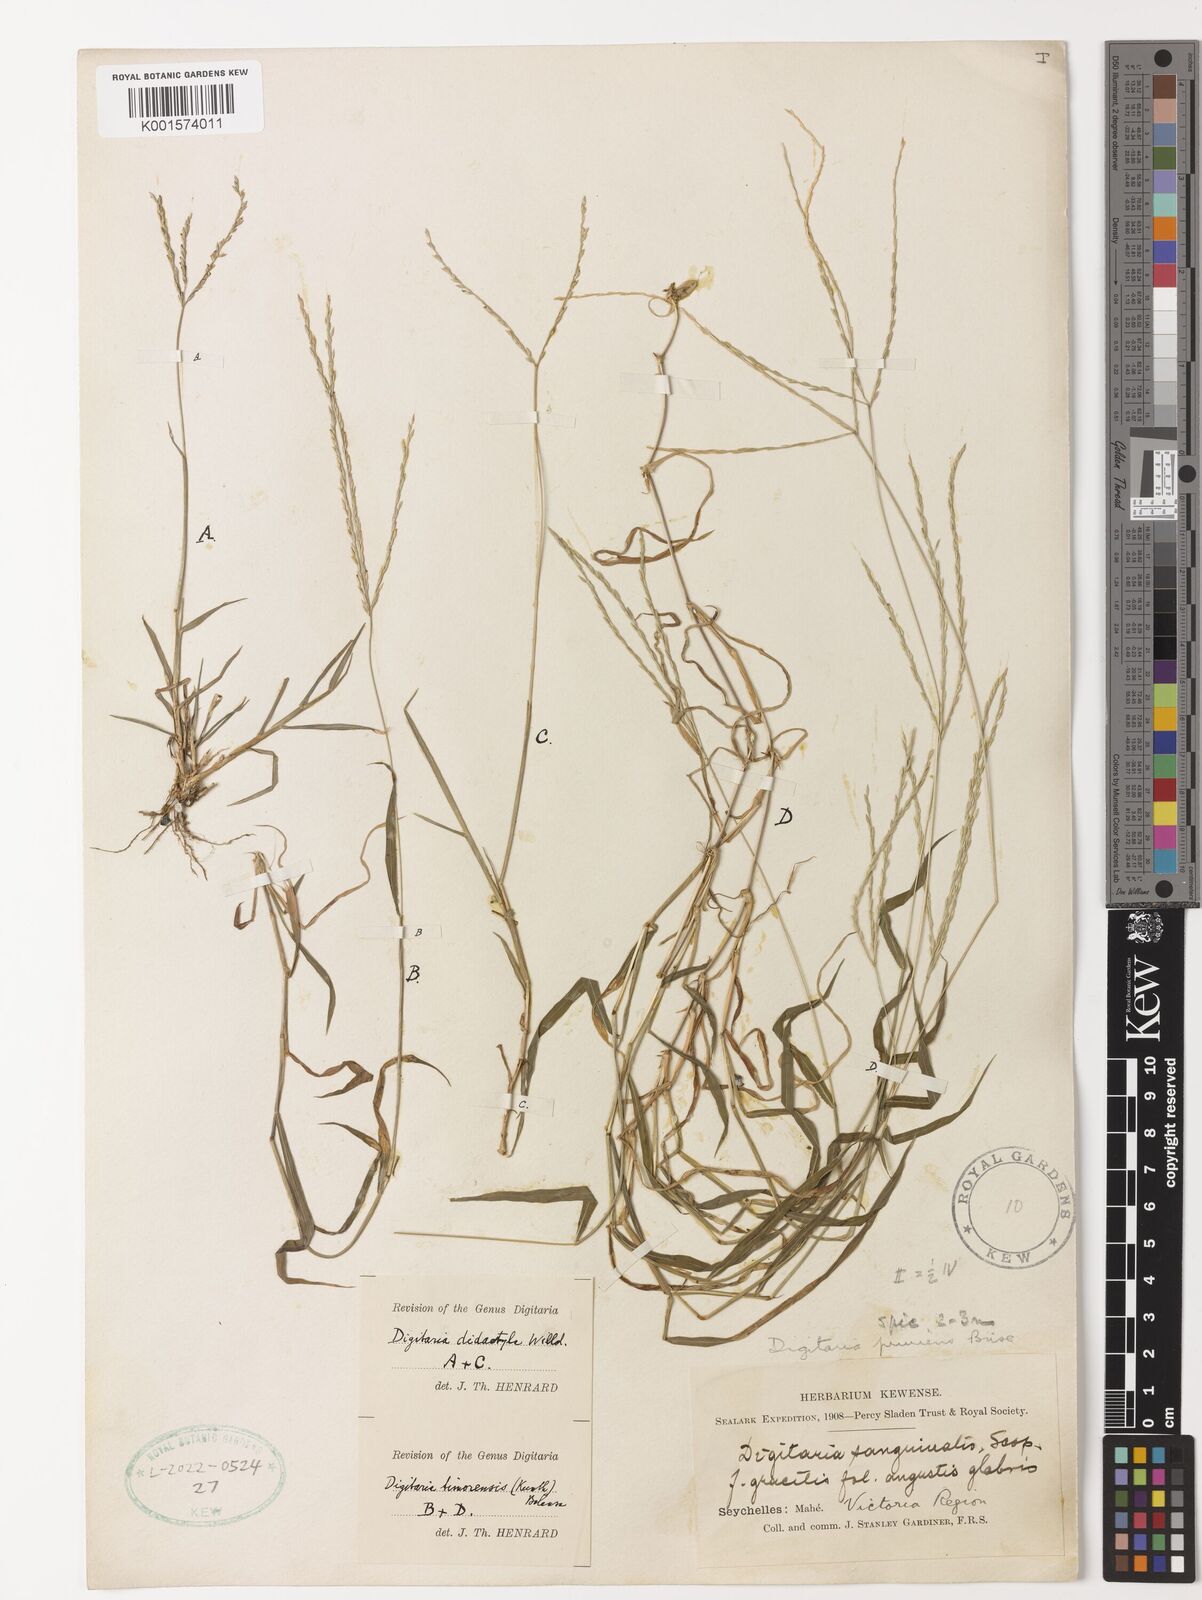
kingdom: Plantae
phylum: Tracheophyta
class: Liliopsida
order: Poales
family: Poaceae
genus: Digitaria
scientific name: Digitaria radicosa
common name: Trailing crabgrass
